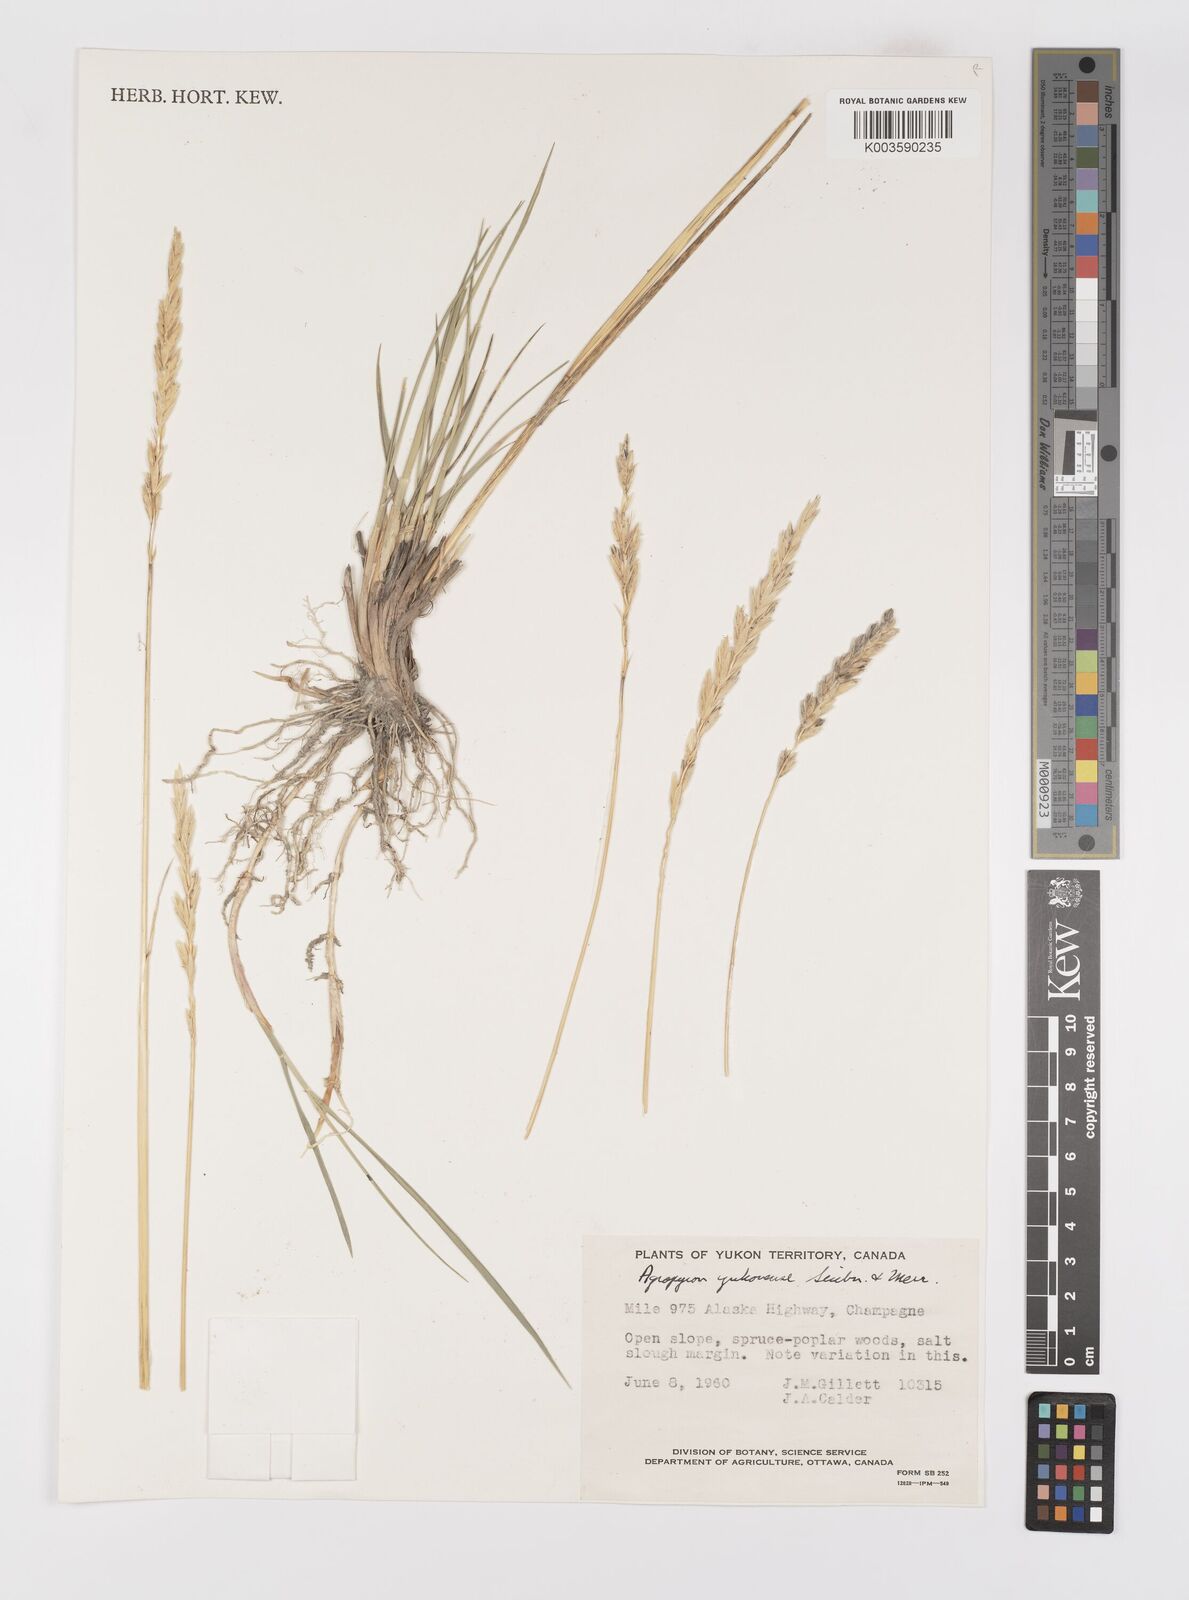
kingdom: Plantae
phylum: Tracheophyta
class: Liliopsida
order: Poales
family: Poaceae
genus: Elymus
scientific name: Elymus alaskanus
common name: Alaska wheatgrass
